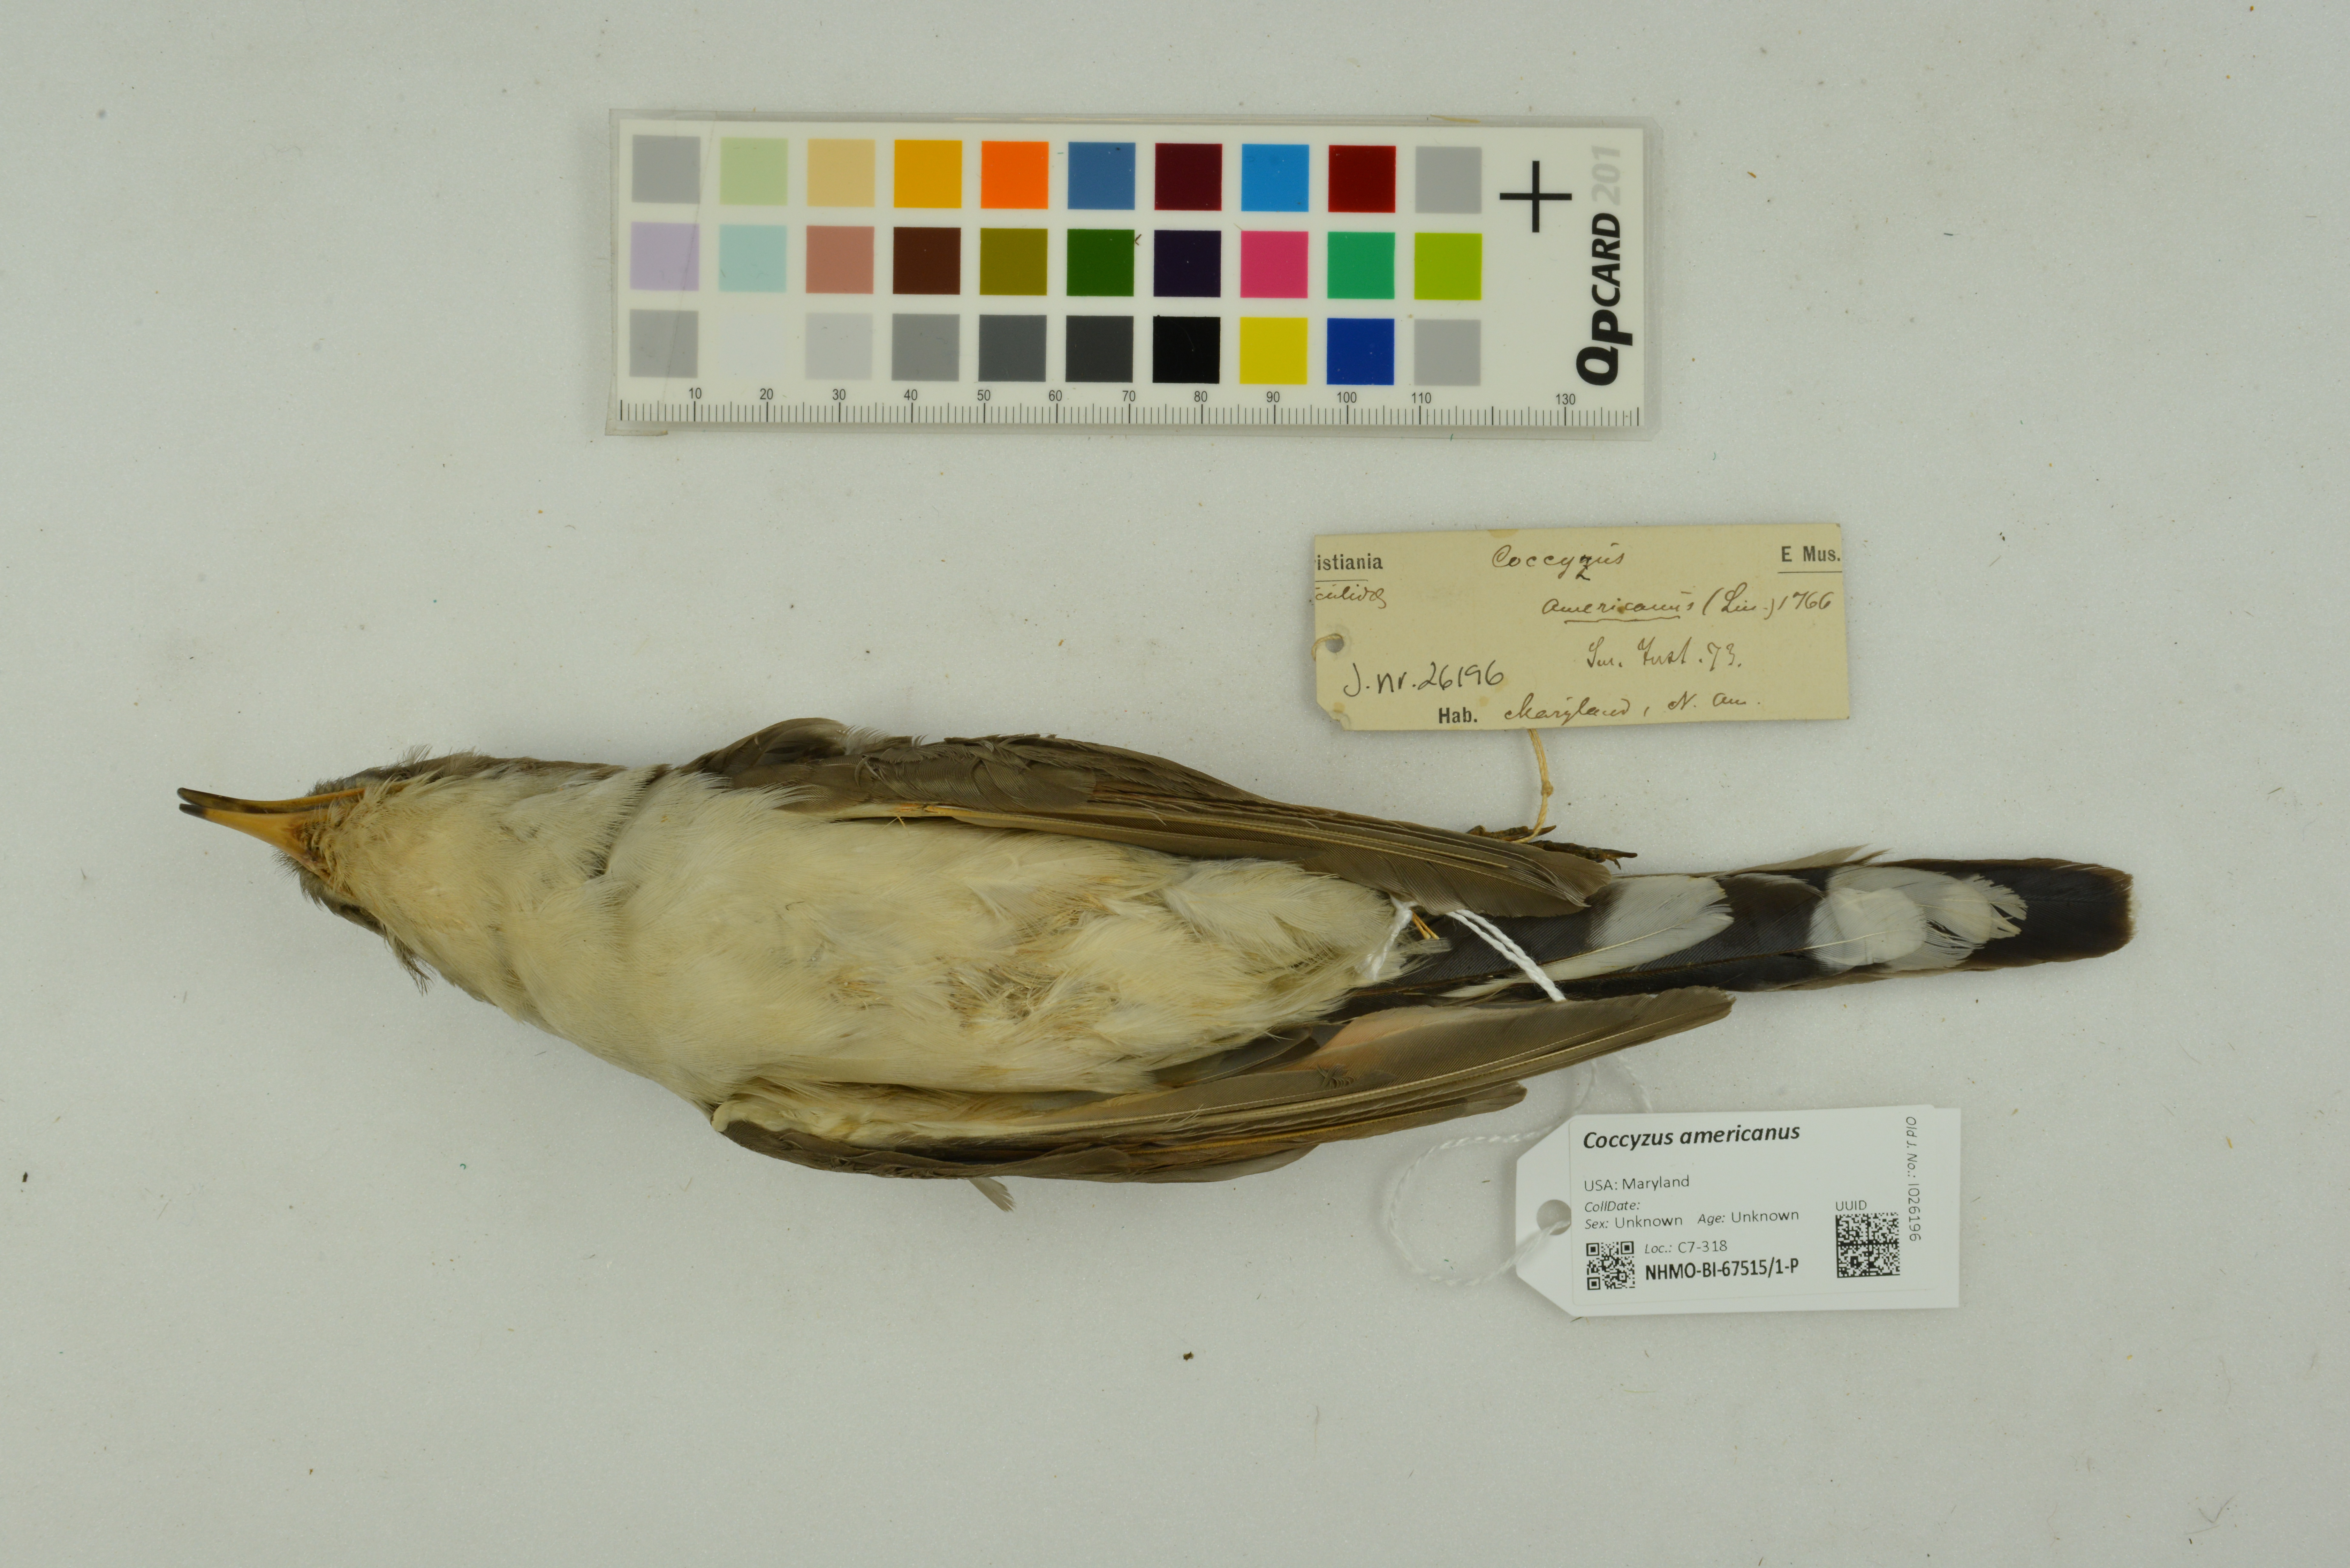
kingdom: Animalia
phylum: Chordata
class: Aves
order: Cuculiformes
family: Cuculidae
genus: Coccyzus
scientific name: Coccyzus americanus
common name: Yellow-billed cuckoo
